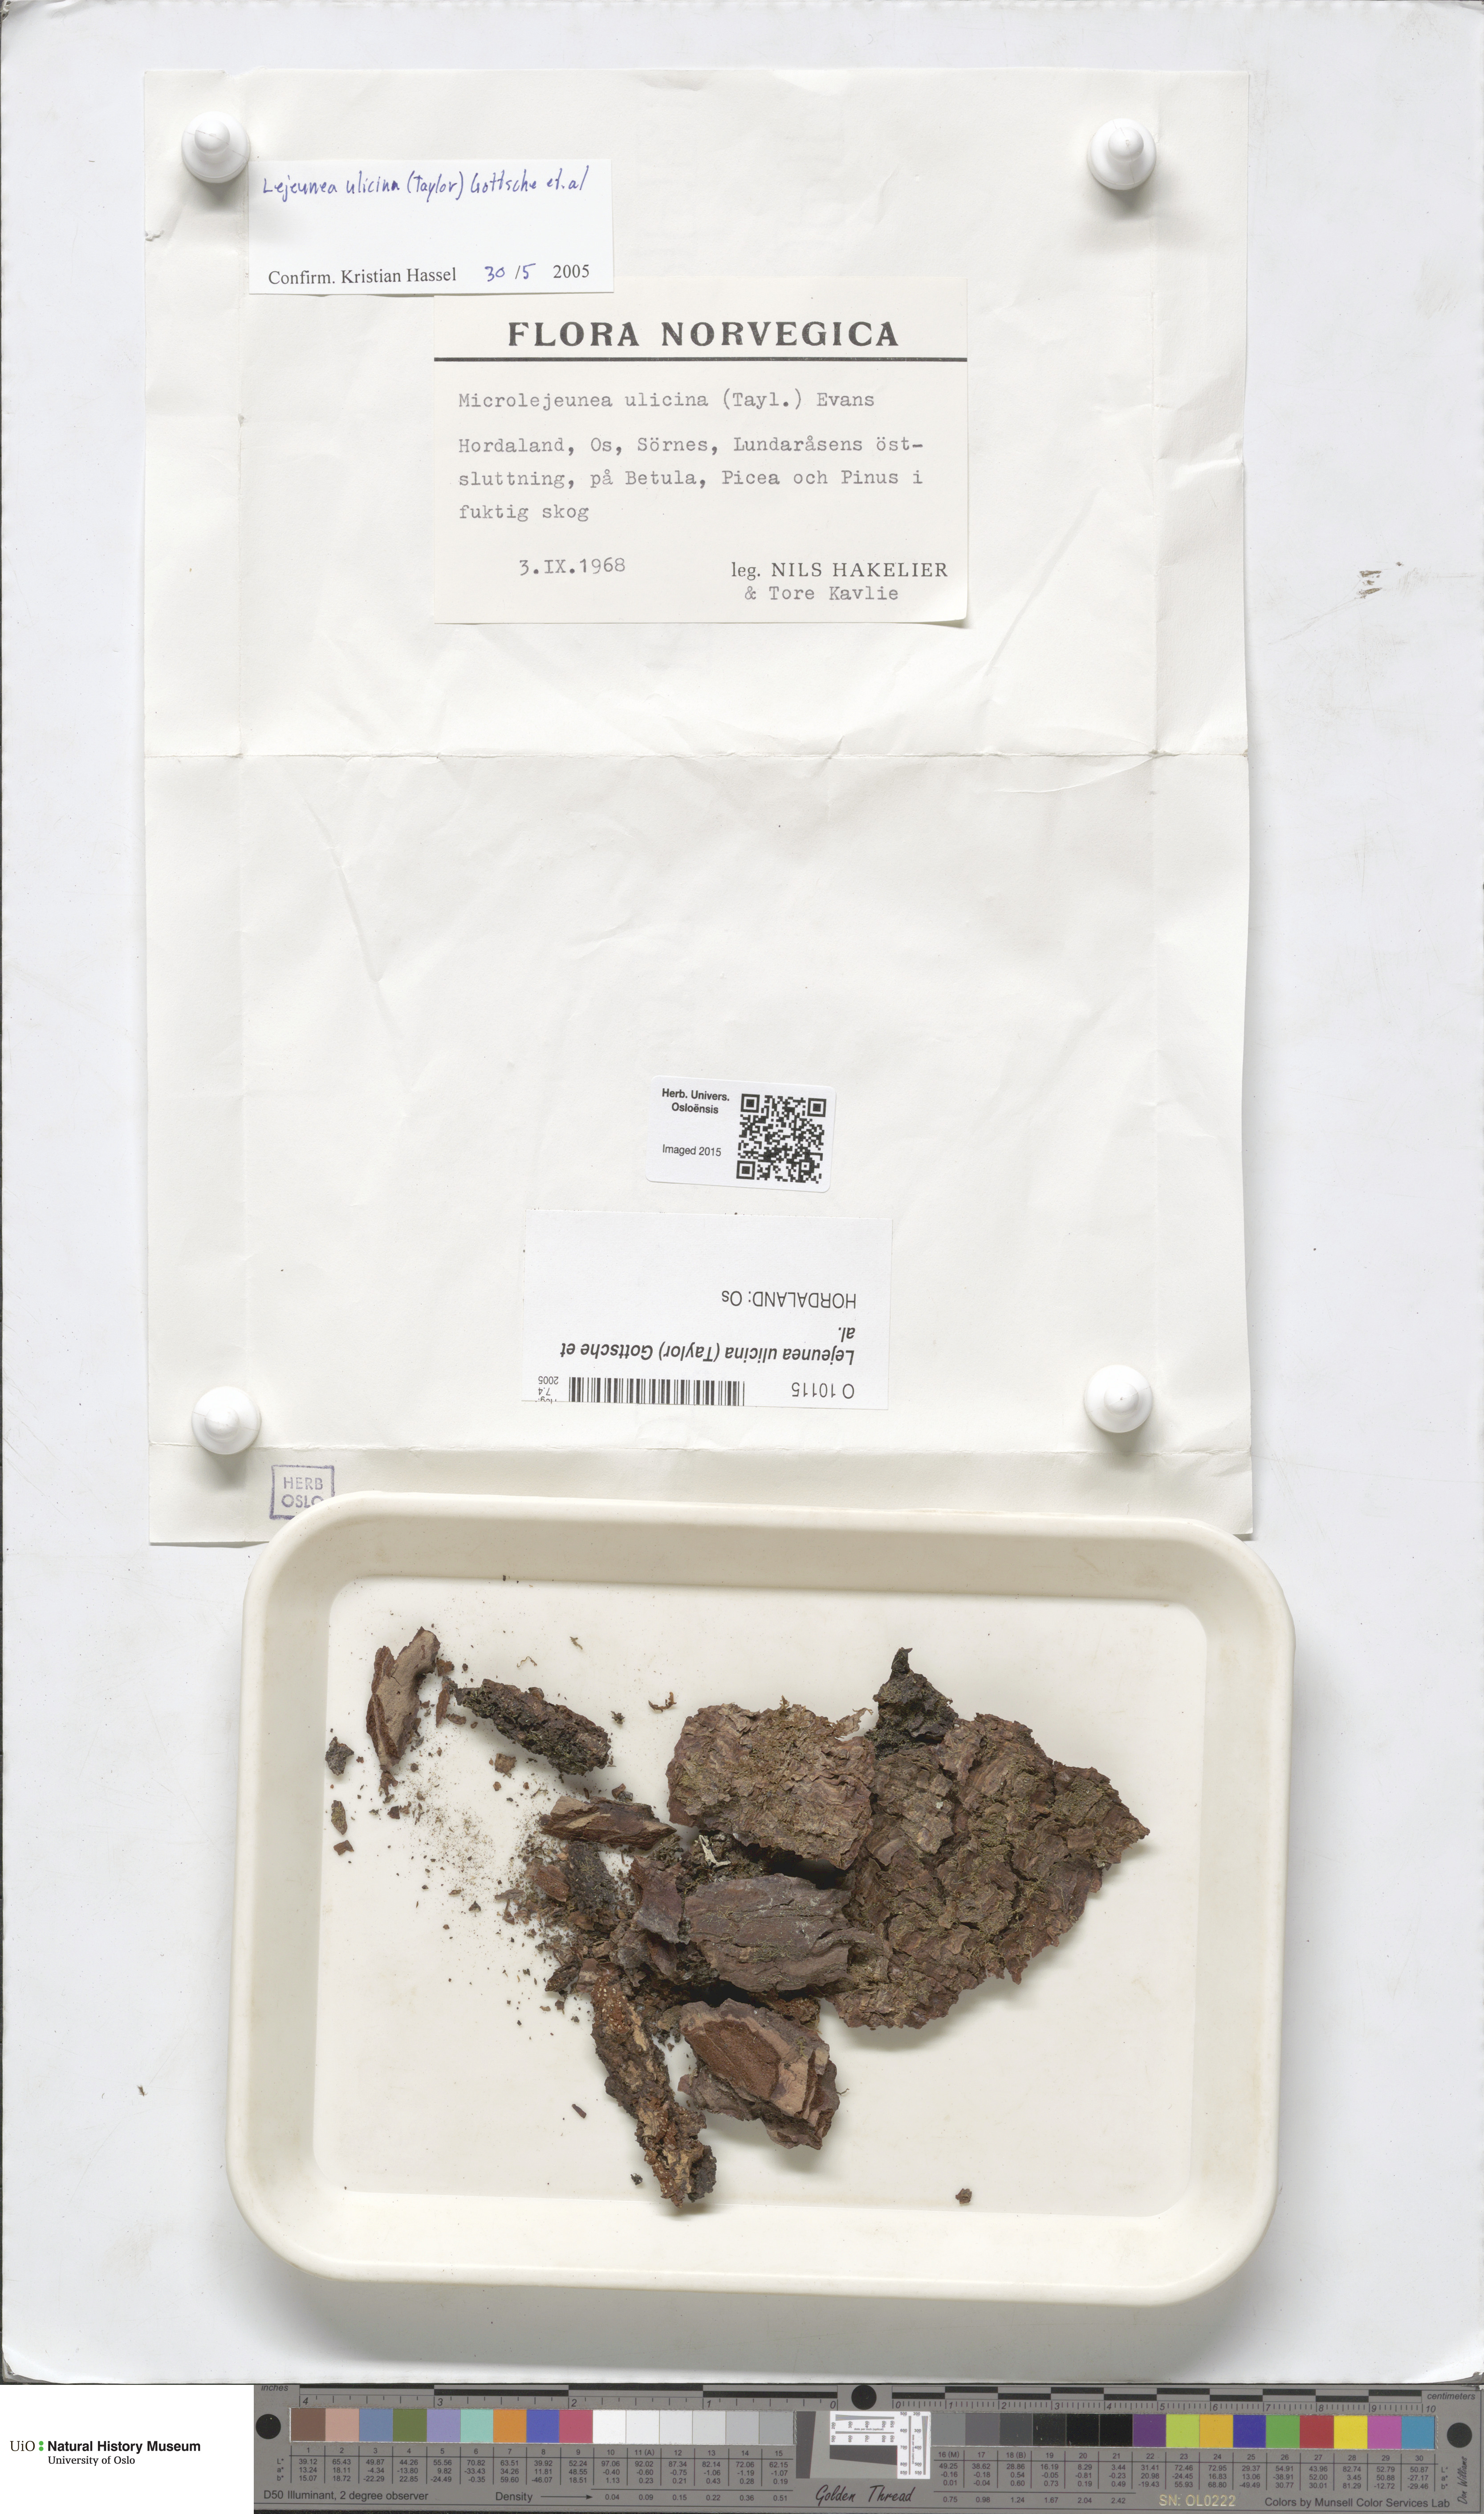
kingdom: Plantae
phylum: Marchantiophyta
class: Jungermanniopsida
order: Porellales
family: Lejeuneaceae
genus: Microlejeunea
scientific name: Microlejeunea ulicina
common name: Fairy beads
